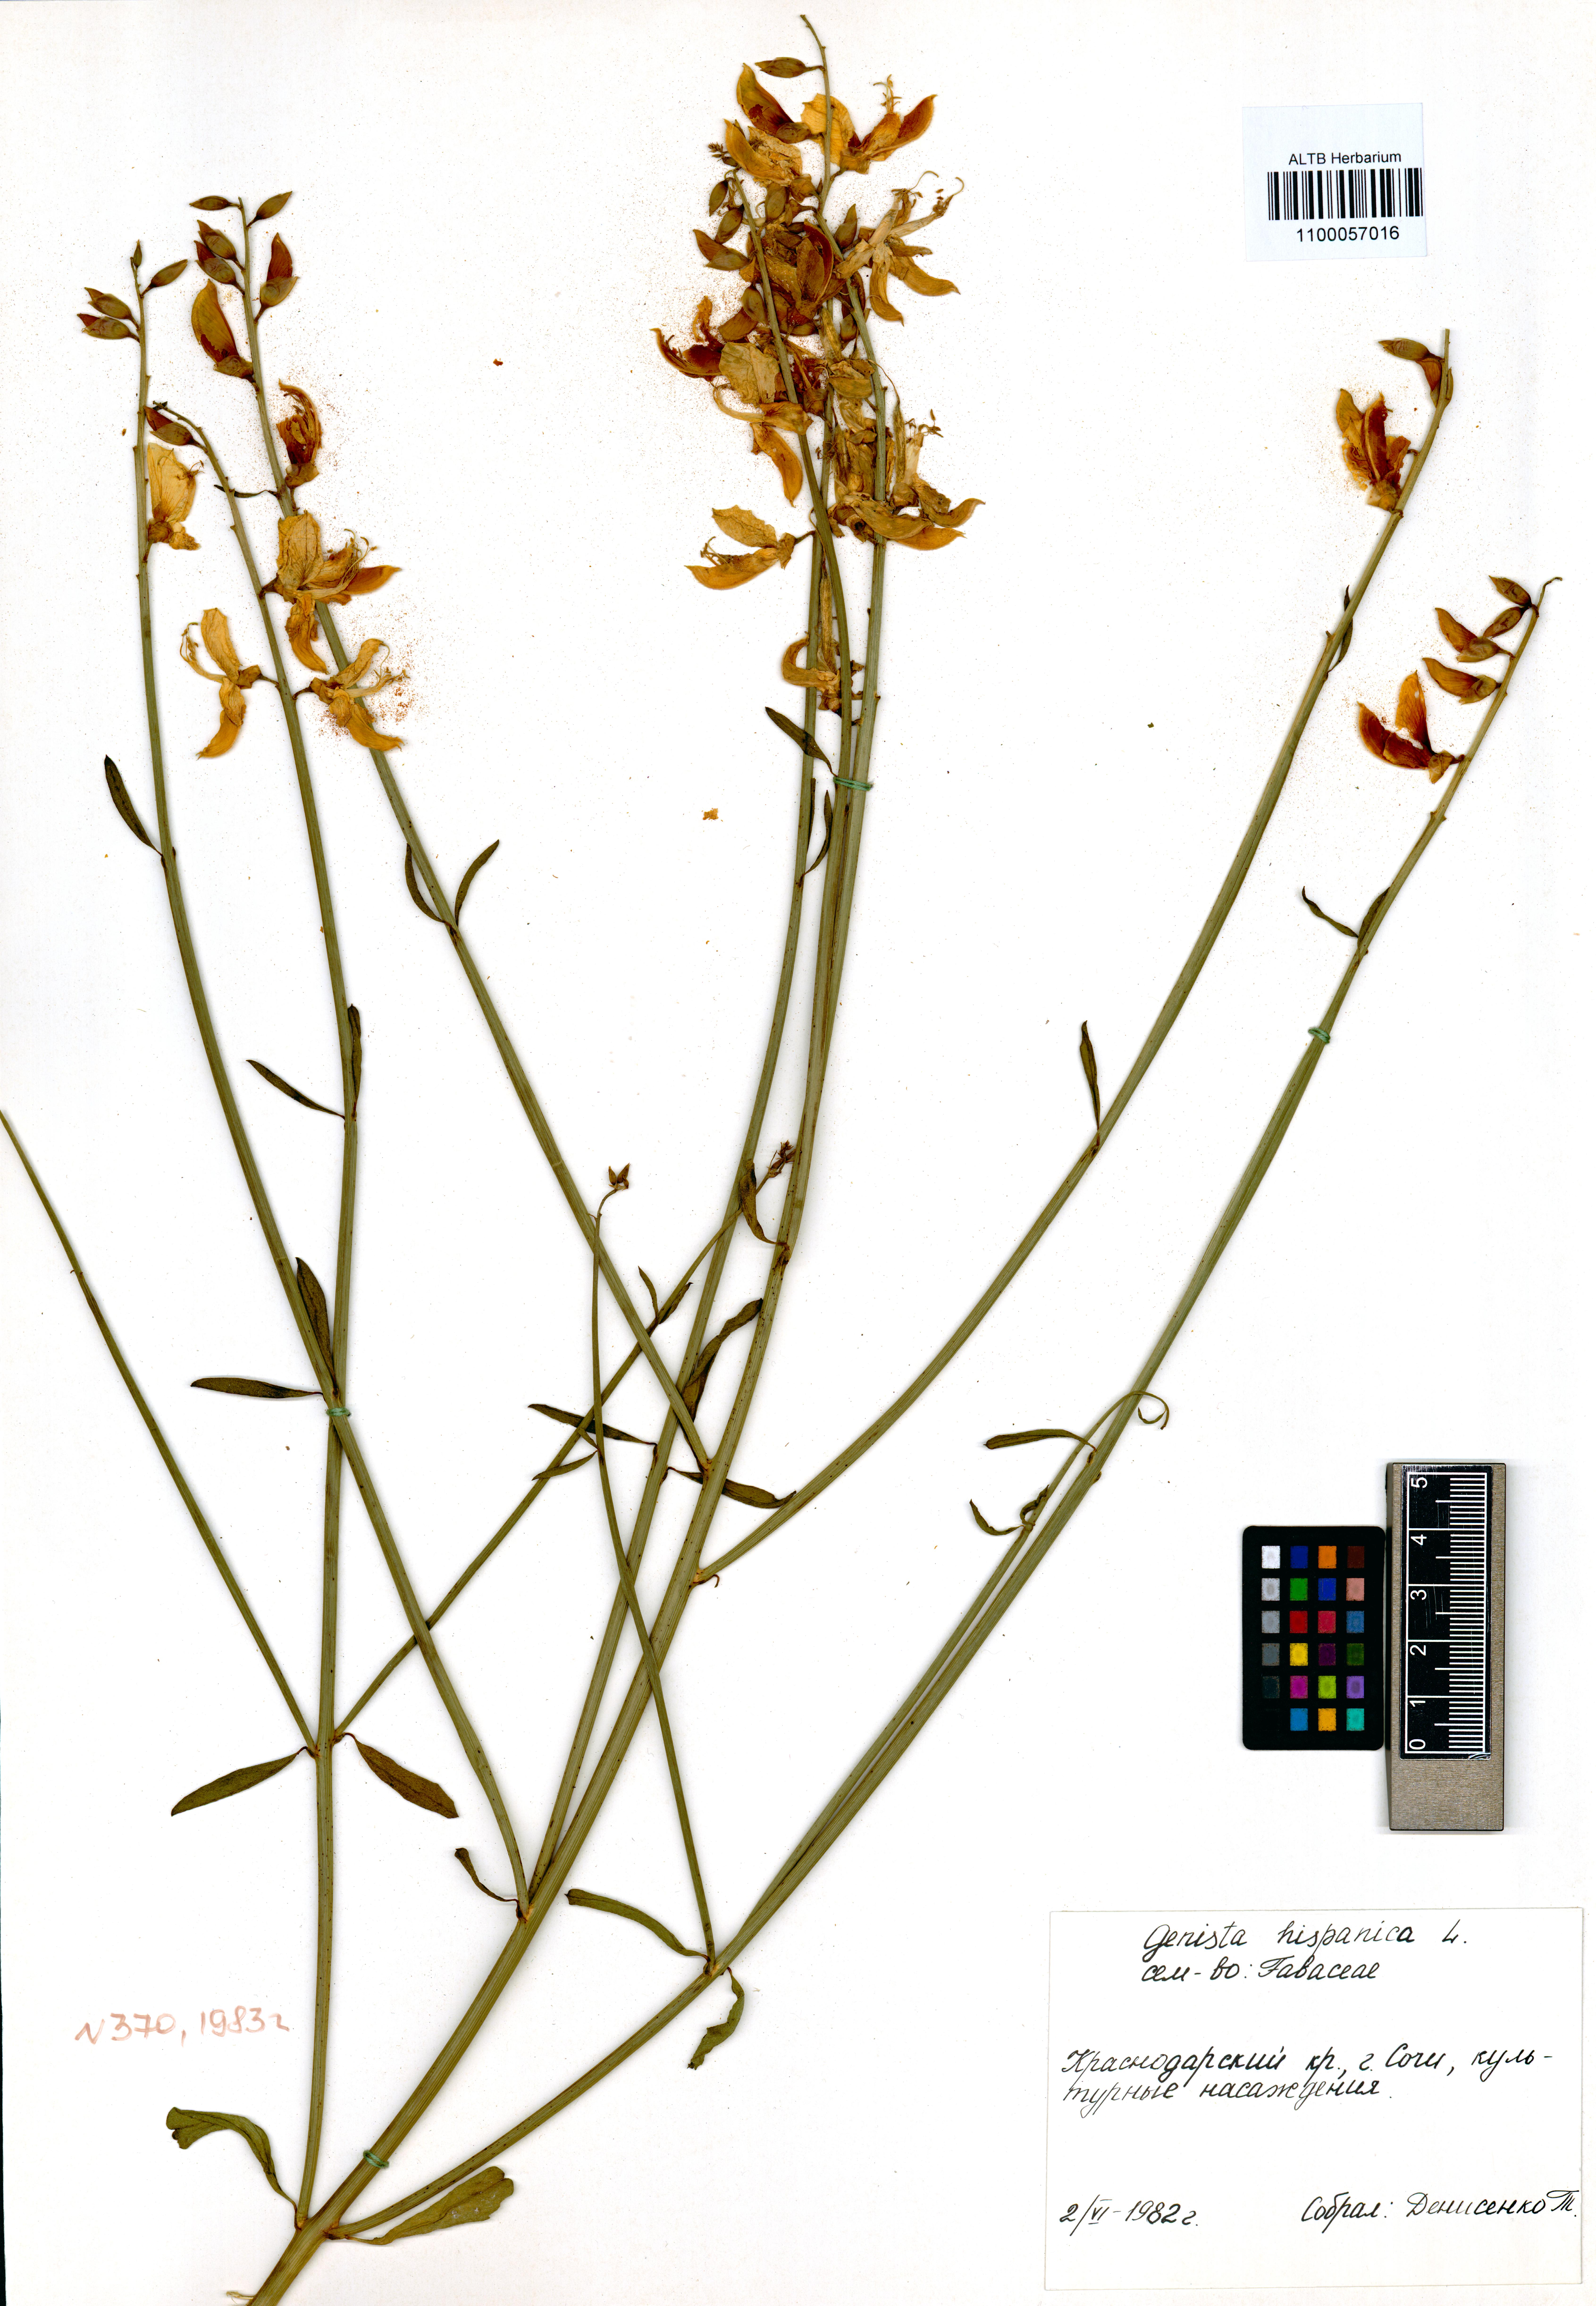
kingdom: Plantae
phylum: Tracheophyta
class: Magnoliopsida
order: Fabales
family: Fabaceae
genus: Genista
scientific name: Genista hispanica
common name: Spanish gorse
